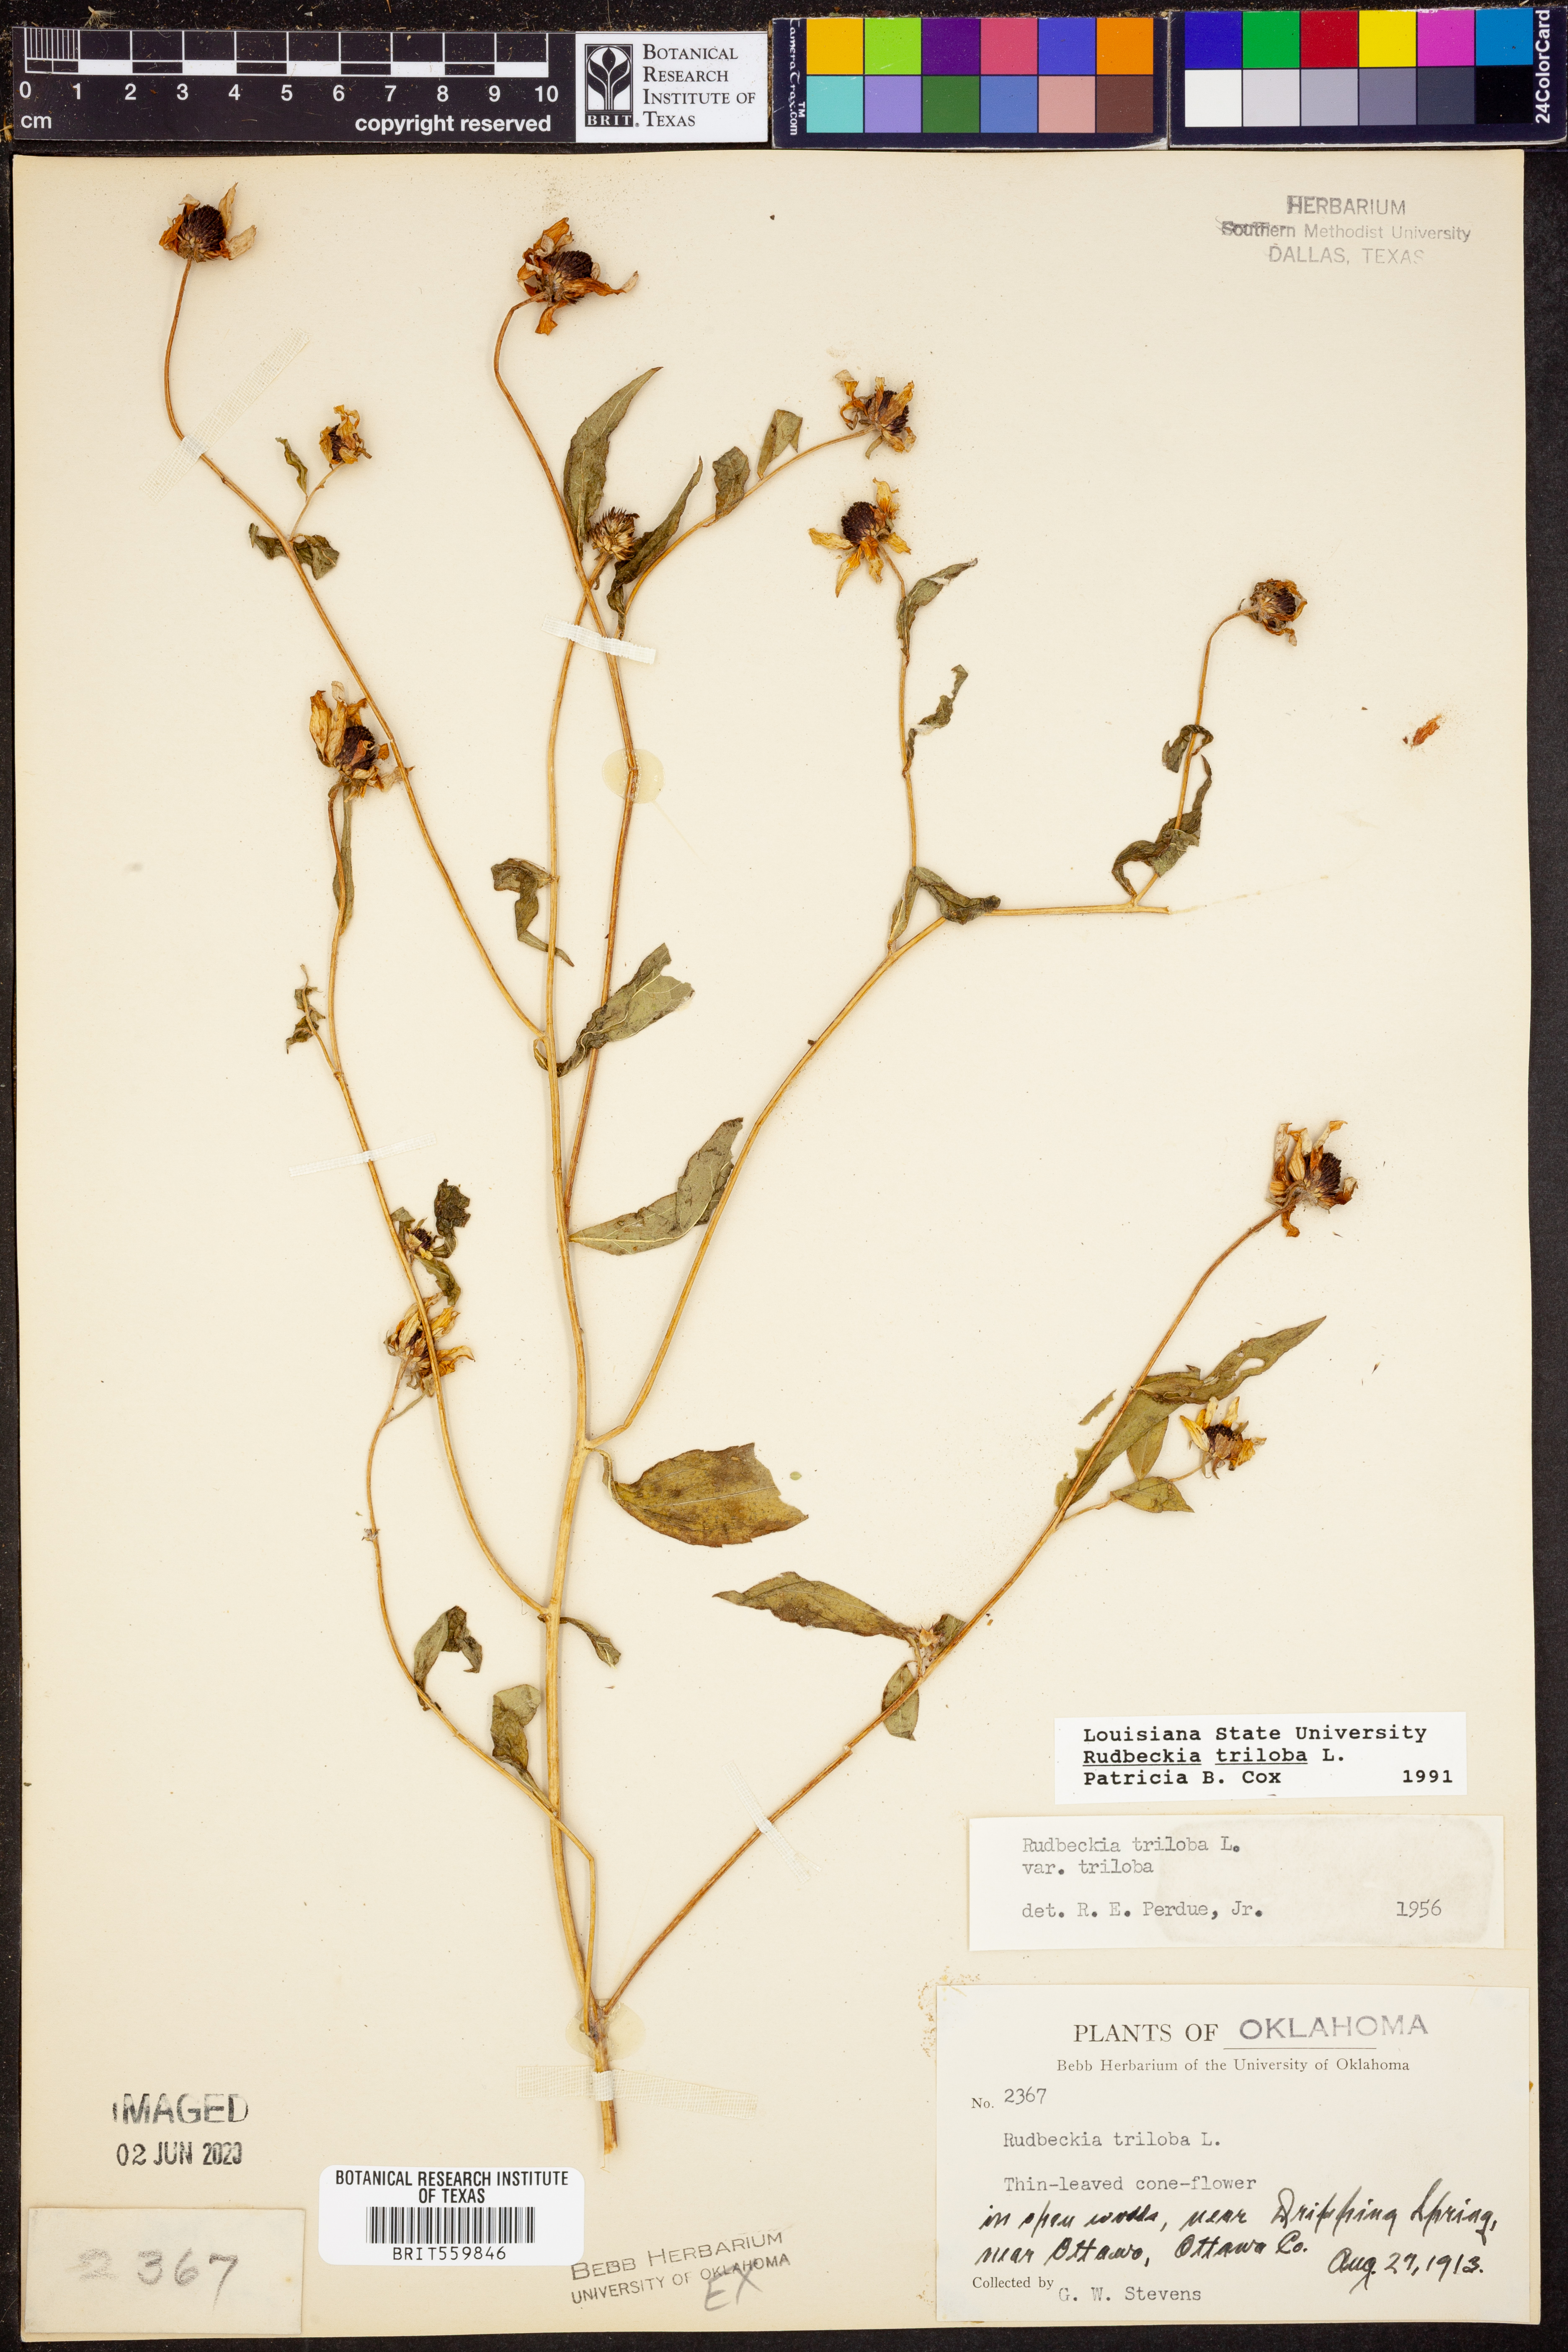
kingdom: Plantae
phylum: Tracheophyta
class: Magnoliopsida
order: Asterales
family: Asteraceae
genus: Rudbeckia
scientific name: Rudbeckia triloba
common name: Thin-leaved coneflower
